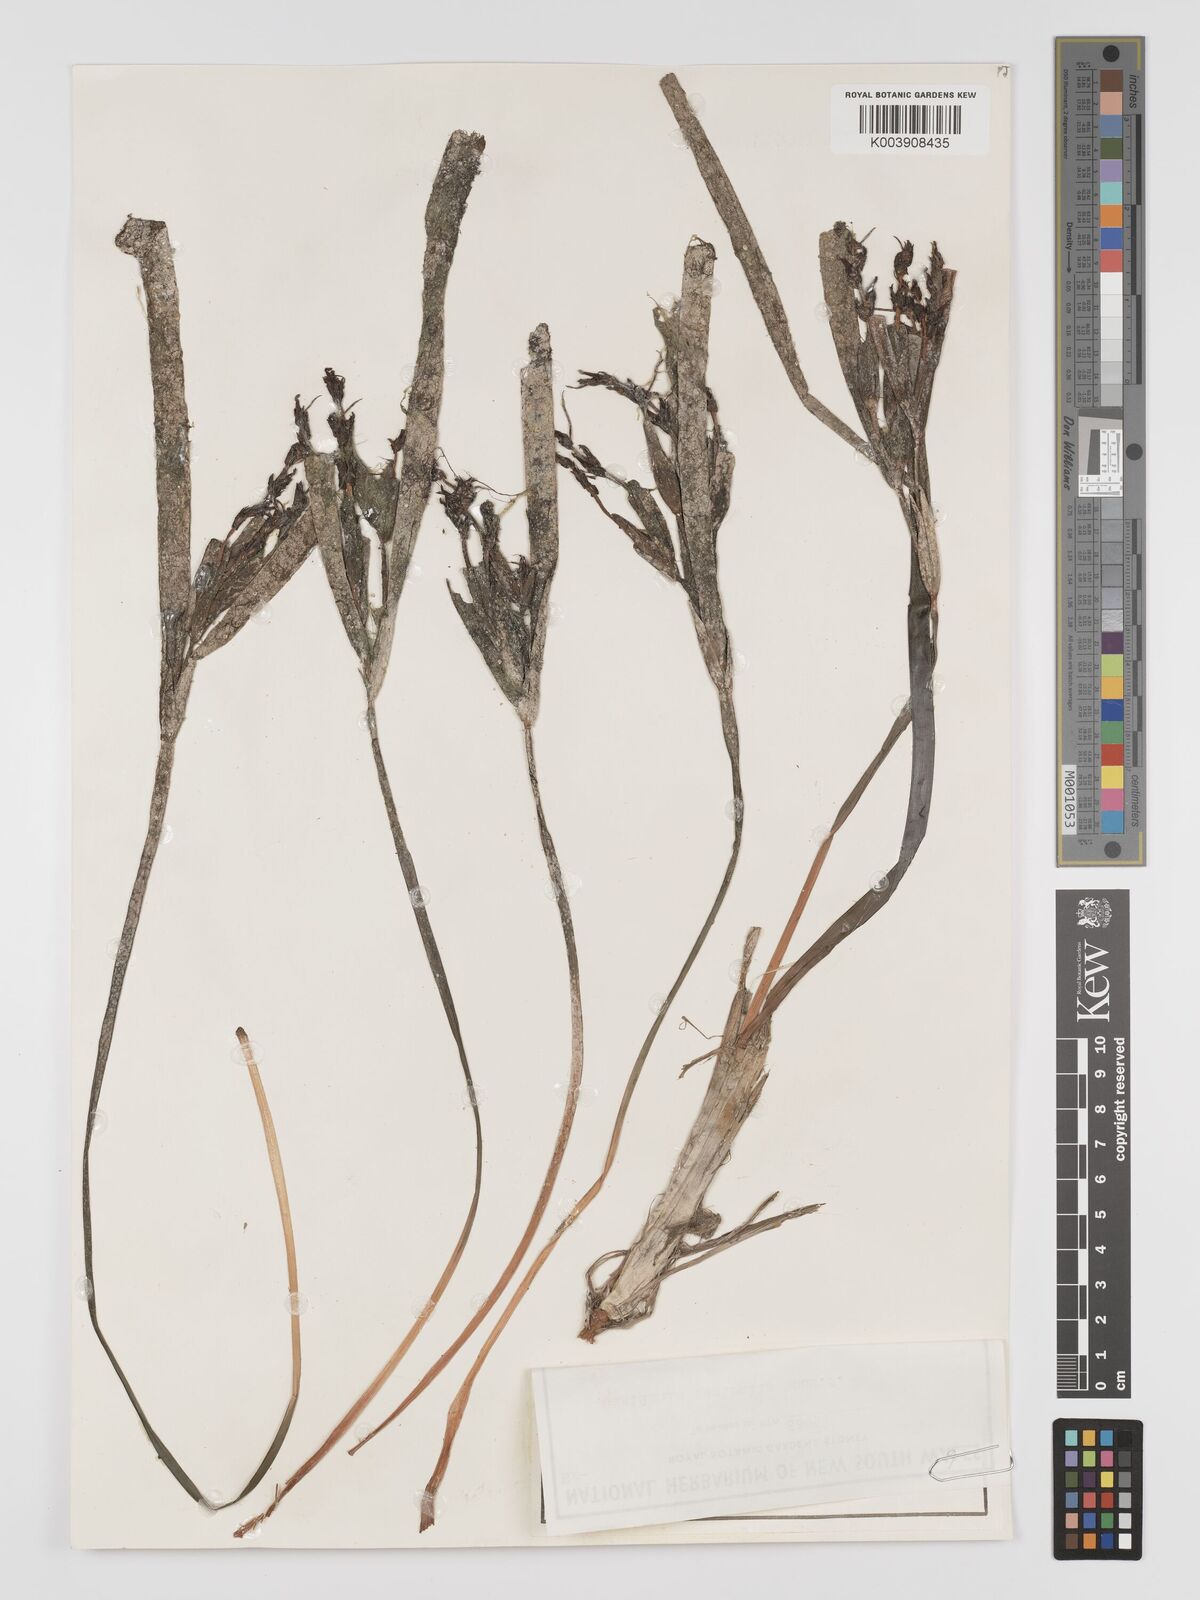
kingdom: Plantae
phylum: Tracheophyta
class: Liliopsida
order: Alismatales
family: Posidoniaceae
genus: Posidonia
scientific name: Posidonia australis
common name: Species code: pa
